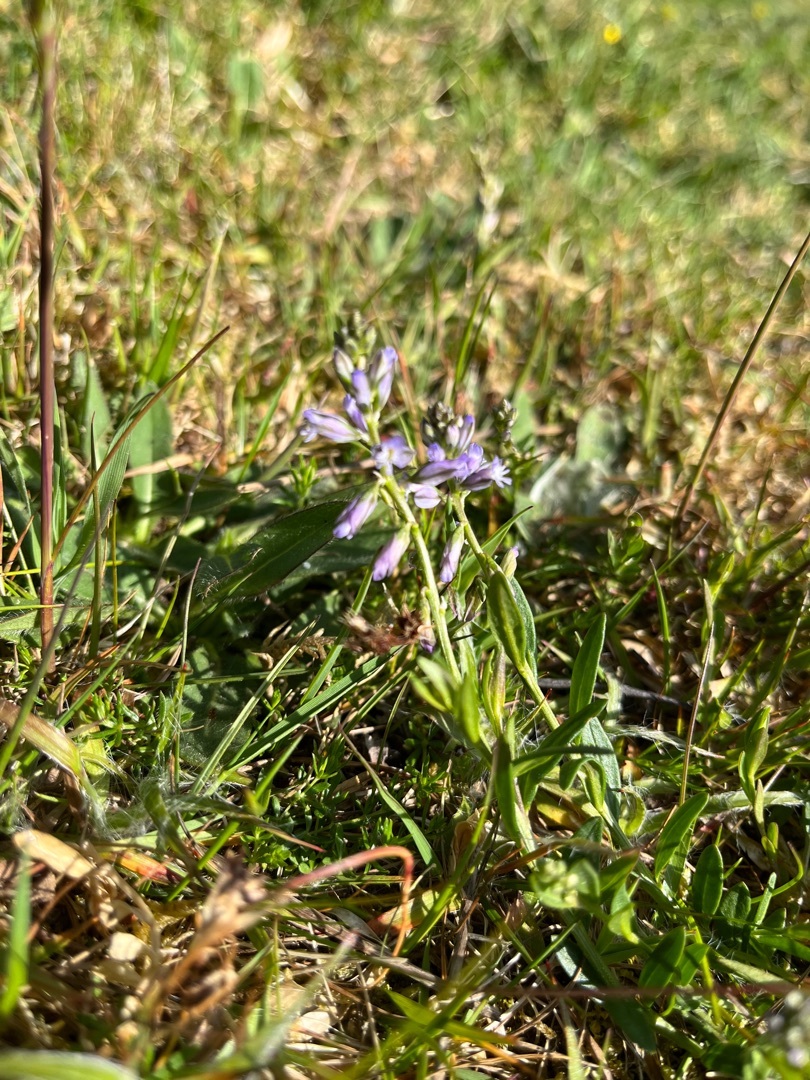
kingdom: Plantae
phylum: Tracheophyta
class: Magnoliopsida
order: Fabales
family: Polygalaceae
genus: Polygala
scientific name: Polygala vulgaris
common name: Almindelig mælkeurt
